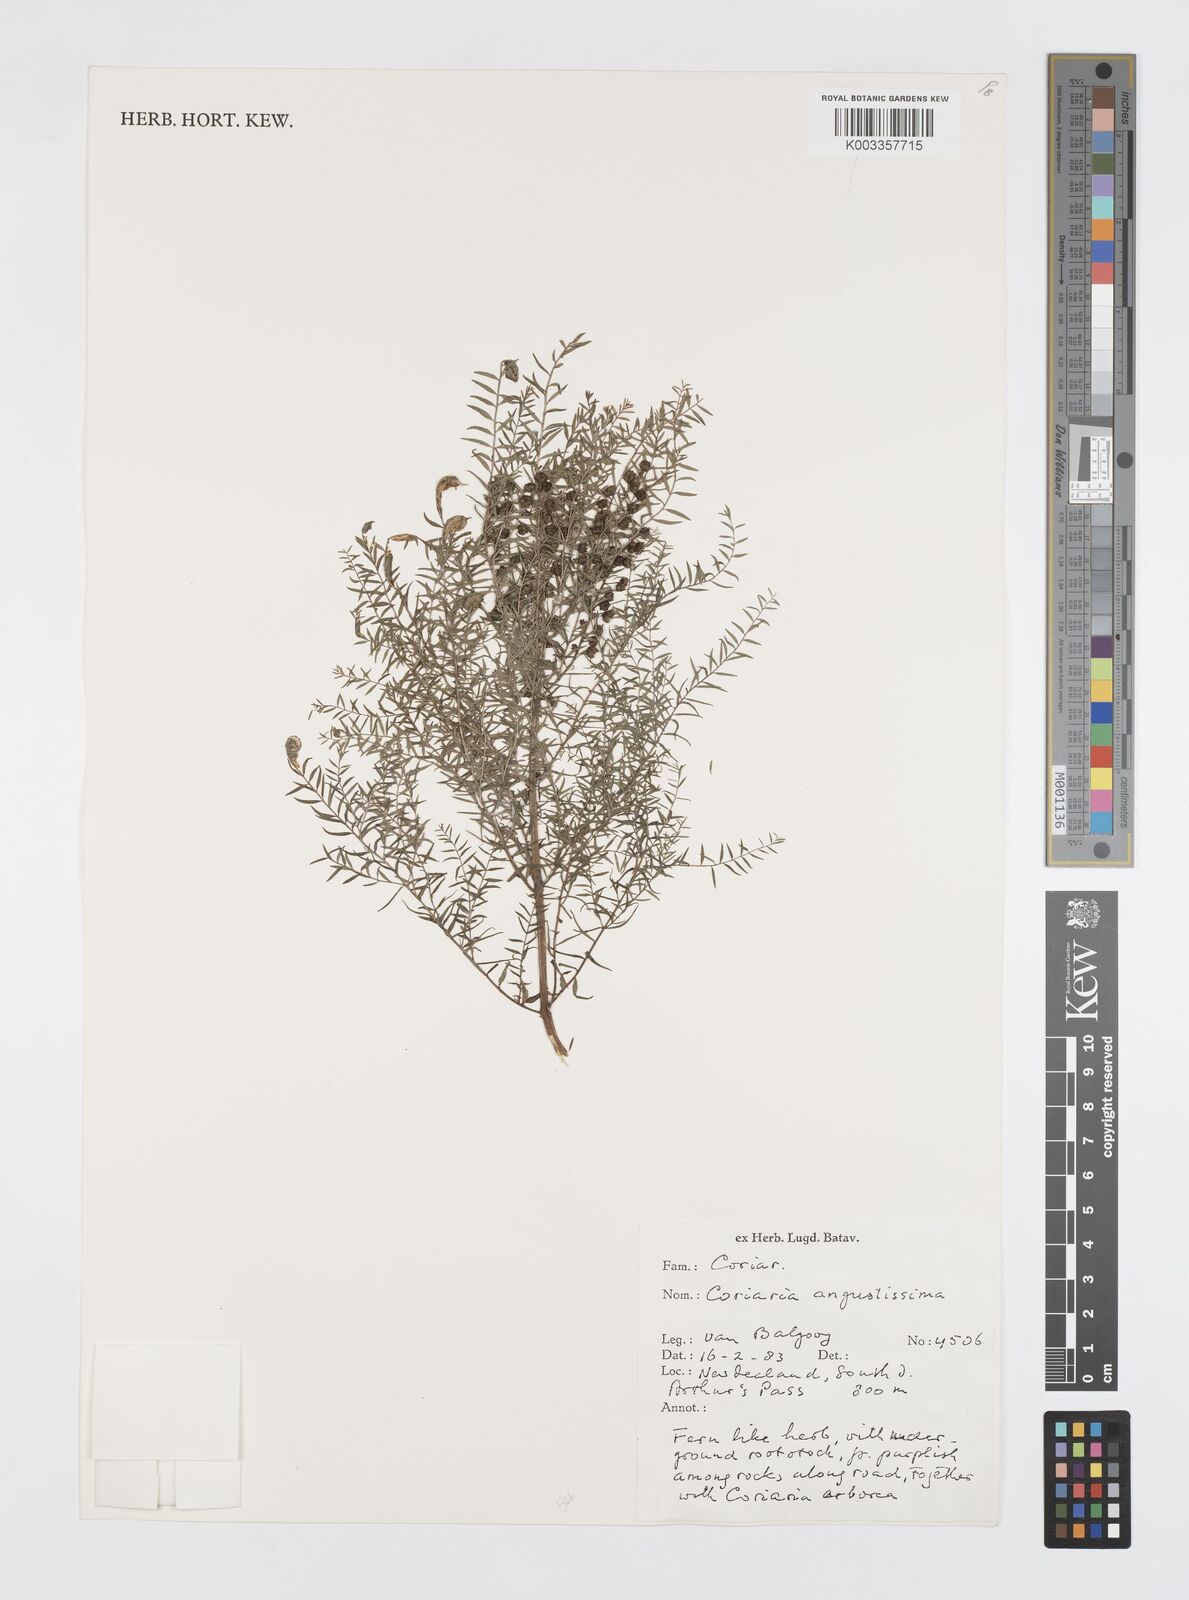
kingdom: Plantae
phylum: Tracheophyta
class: Magnoliopsida
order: Cucurbitales
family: Coriariaceae
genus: Coriaria
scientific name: Coriaria angustissima
